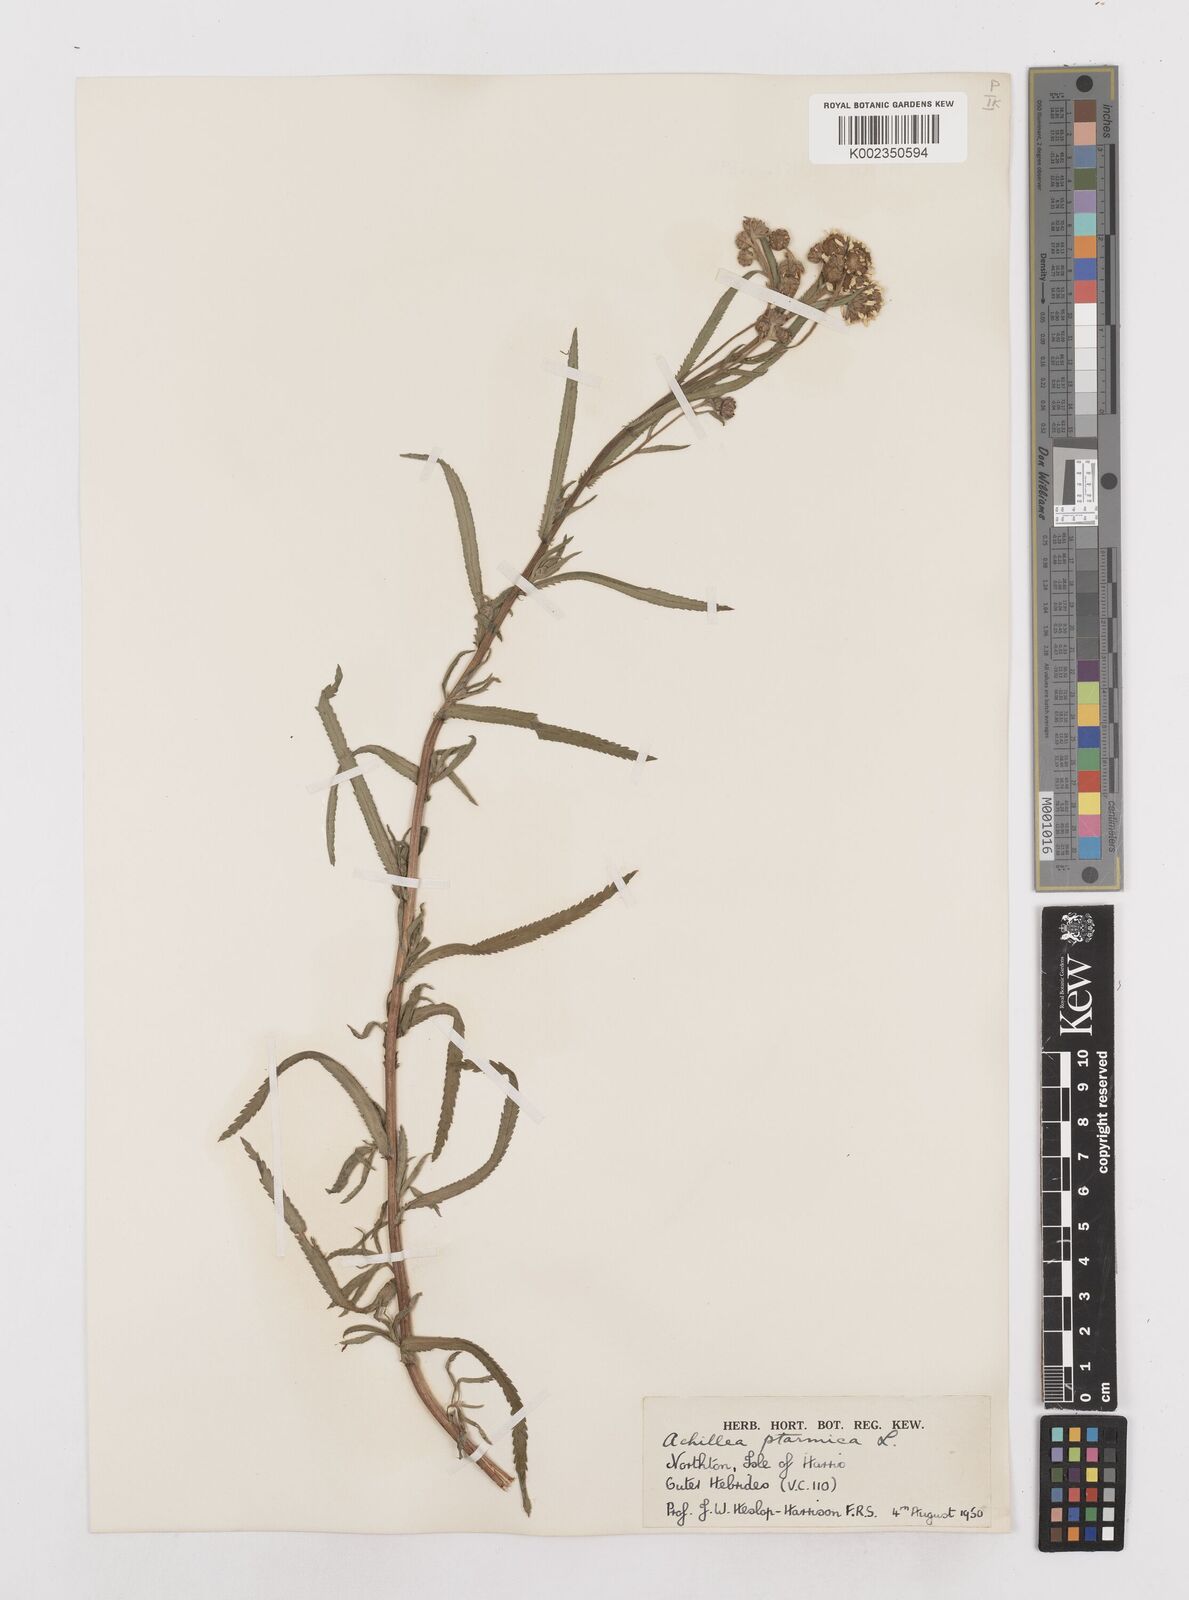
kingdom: Plantae
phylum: Tracheophyta
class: Magnoliopsida
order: Asterales
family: Asteraceae
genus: Achillea
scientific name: Achillea ptarmica
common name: Sneezeweed
